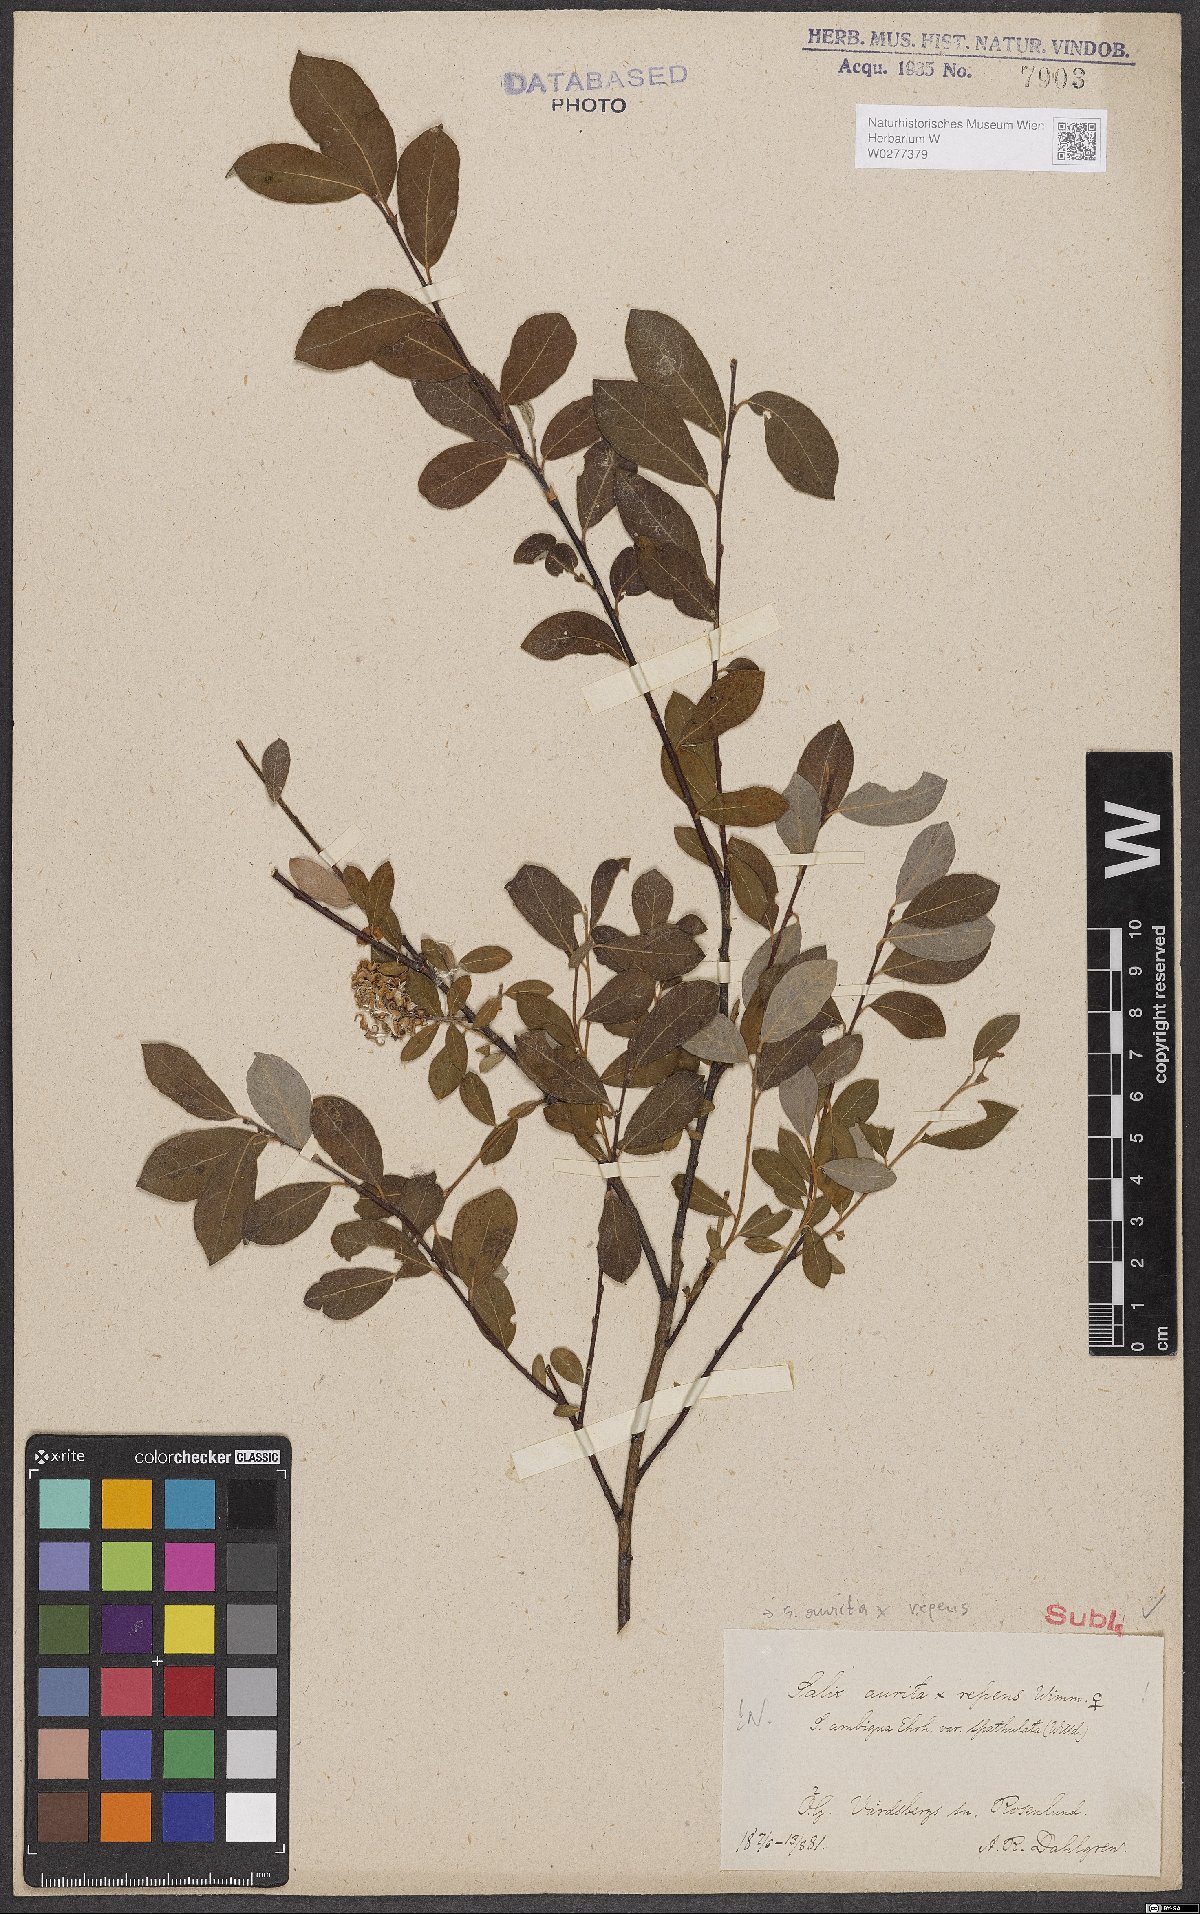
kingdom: Plantae
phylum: Tracheophyta
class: Magnoliopsida
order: Malpighiales
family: Salicaceae
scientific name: Salicaceae
